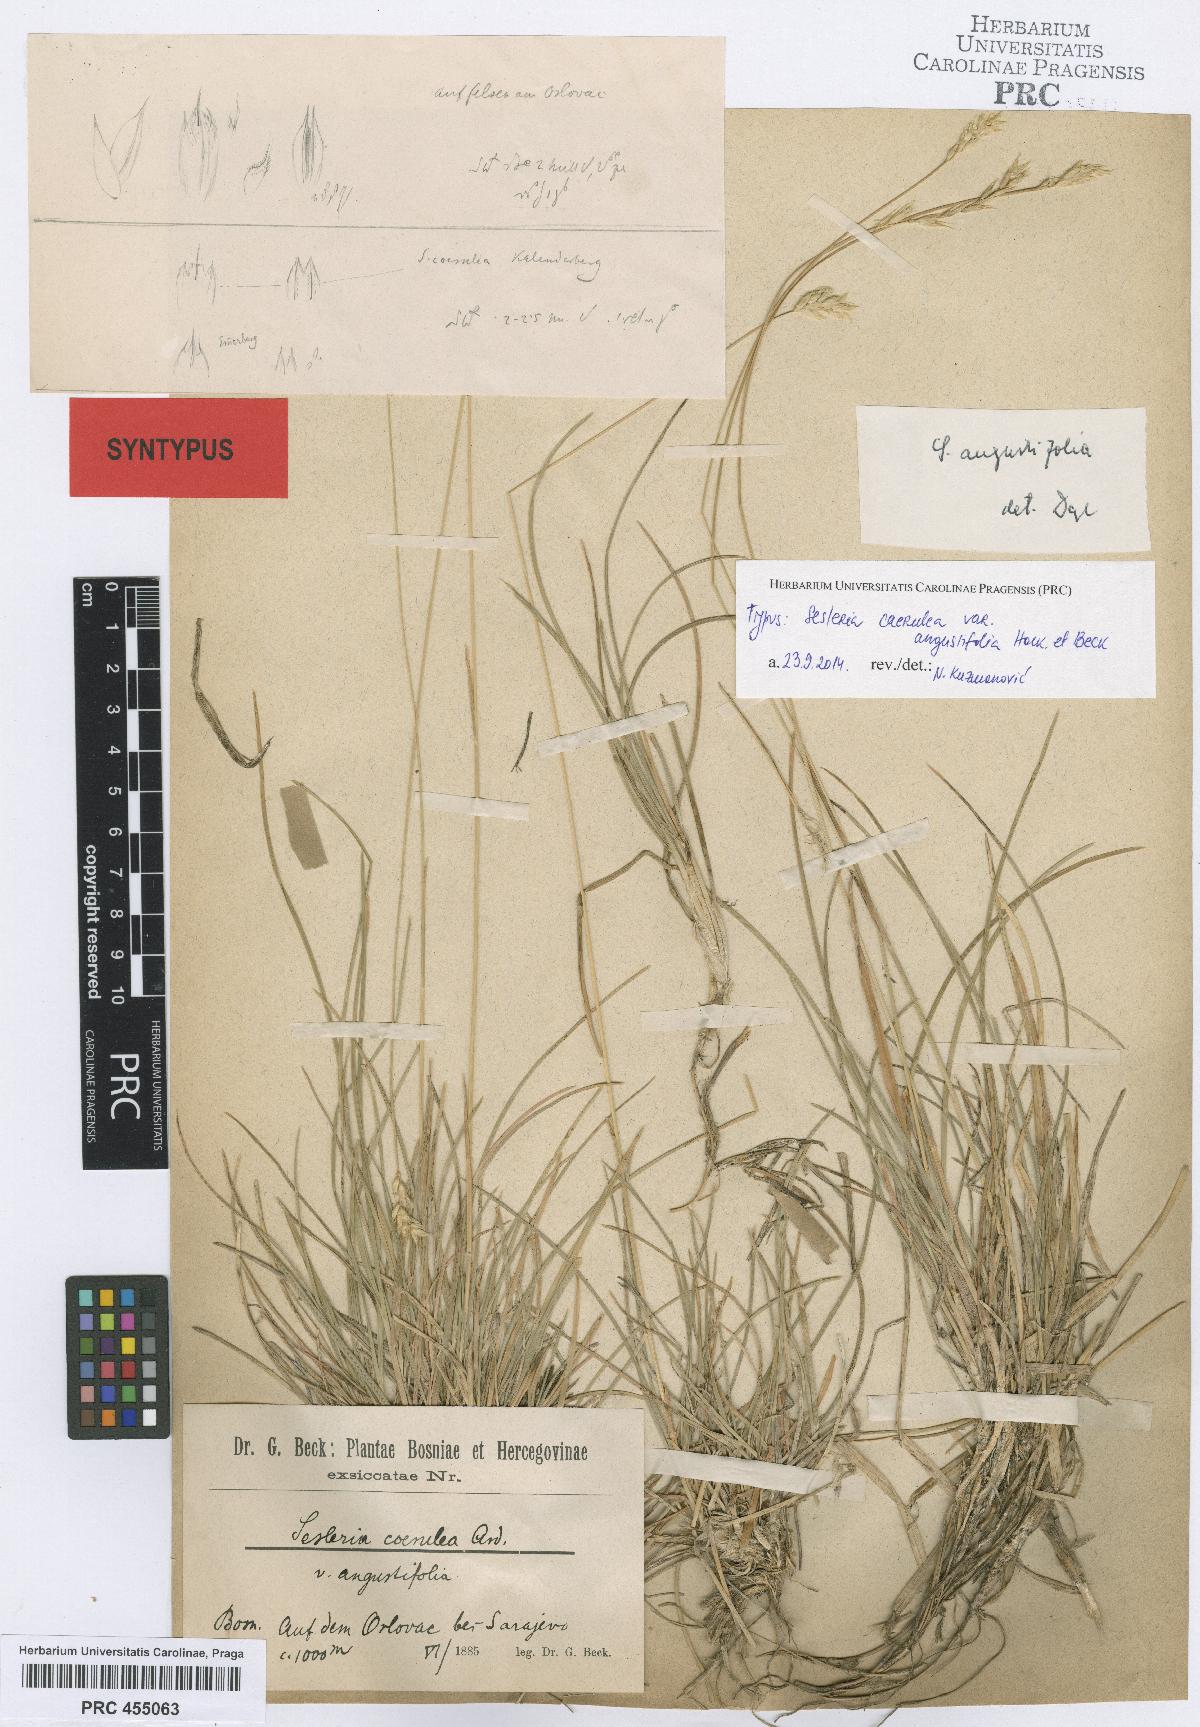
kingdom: Plantae
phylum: Tracheophyta
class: Liliopsida
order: Poales
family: Poaceae
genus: Sesleria
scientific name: Sesleria angustifolia
